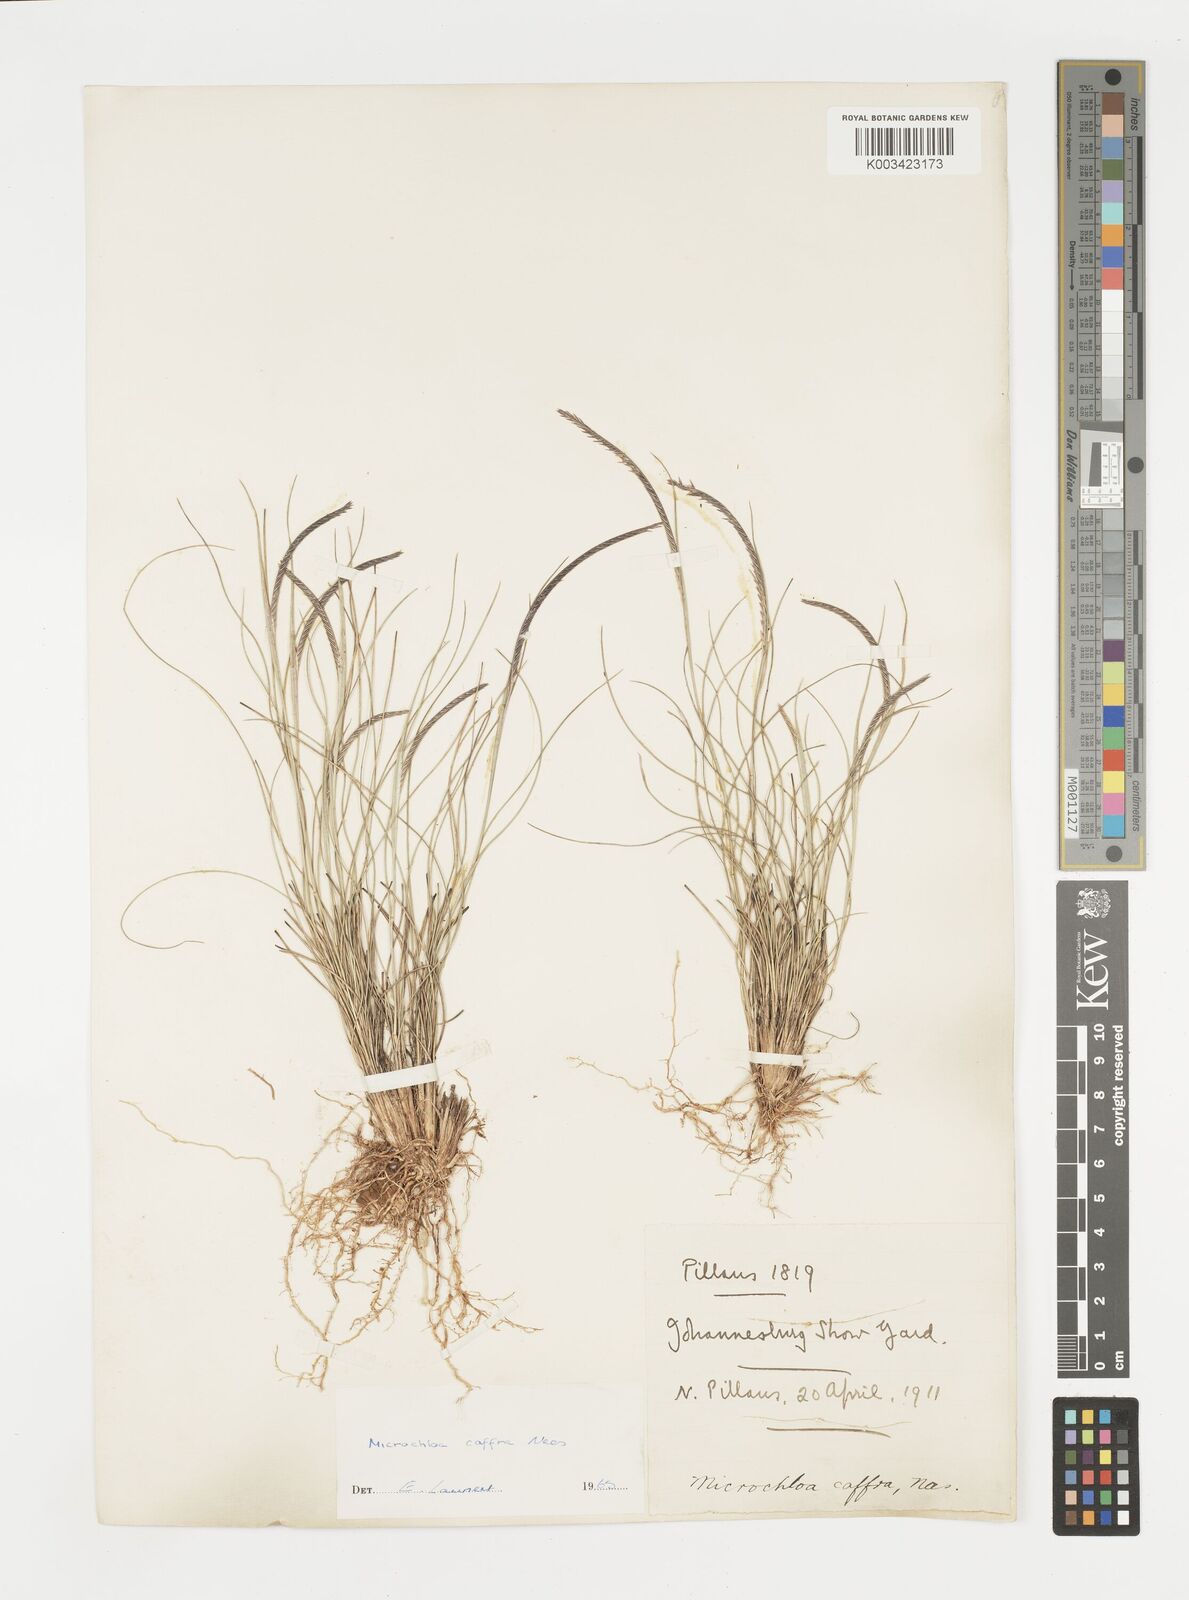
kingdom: Plantae
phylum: Tracheophyta
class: Liliopsida
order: Poales
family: Poaceae
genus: Microchloa
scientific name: Microchloa caffra
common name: Pincushion grass
